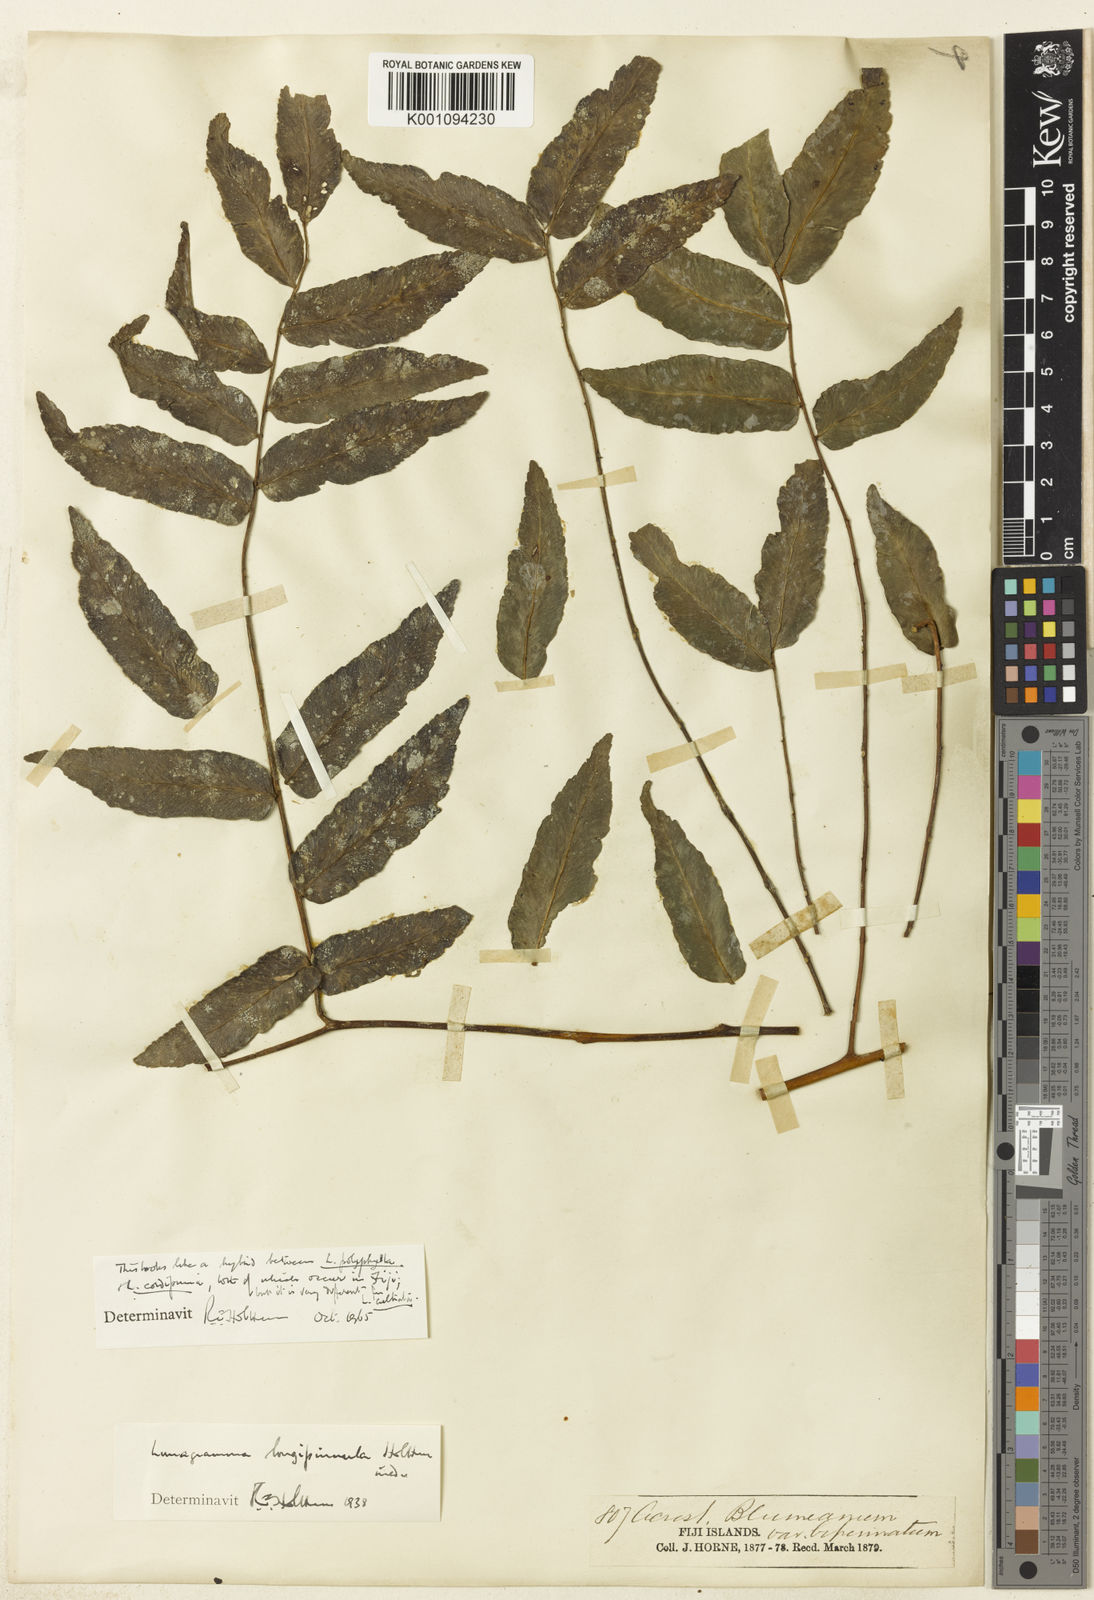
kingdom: Plantae
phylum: Tracheophyta
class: Polypodiopsida
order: Polypodiales
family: Dryopteridaceae
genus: Lomagramma
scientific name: Lomagramma cordipinna
